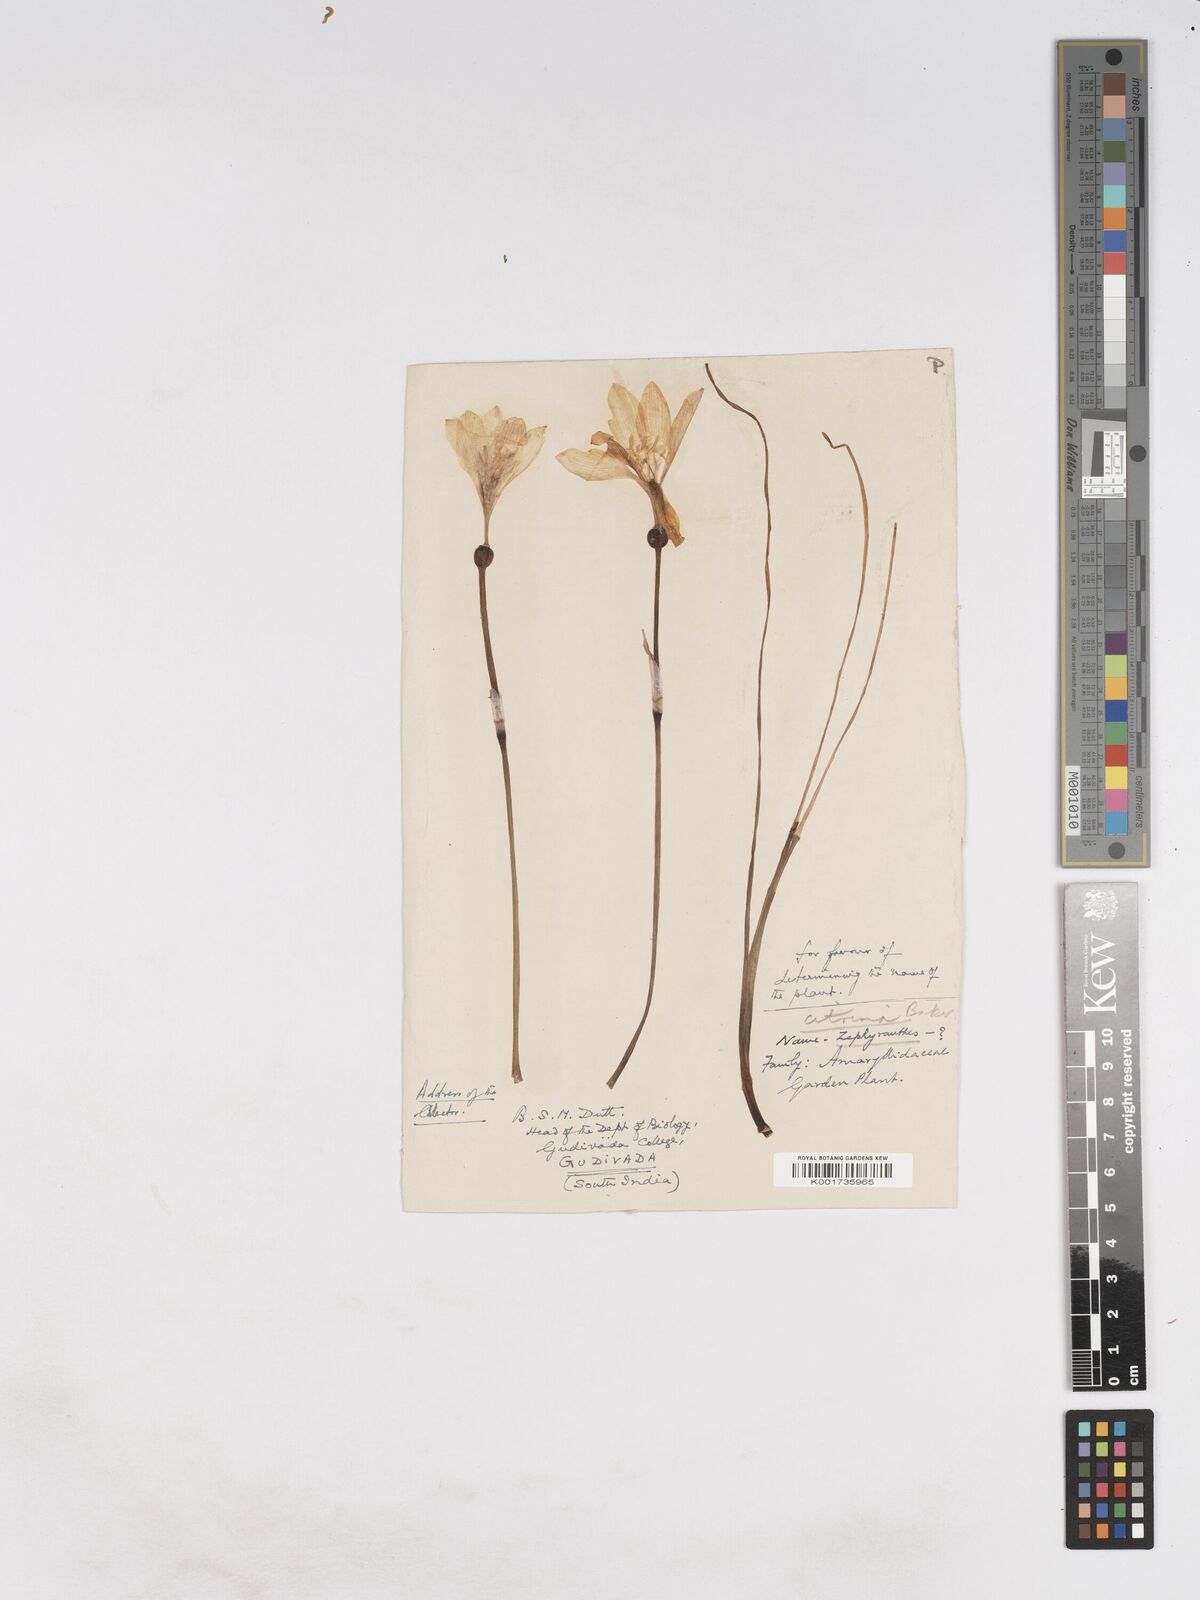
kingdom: Plantae
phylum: Tracheophyta
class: Liliopsida
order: Asparagales
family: Amaryllidaceae
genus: Zephyranthes
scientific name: Zephyranthes citrina
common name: Citron zephyrlily
